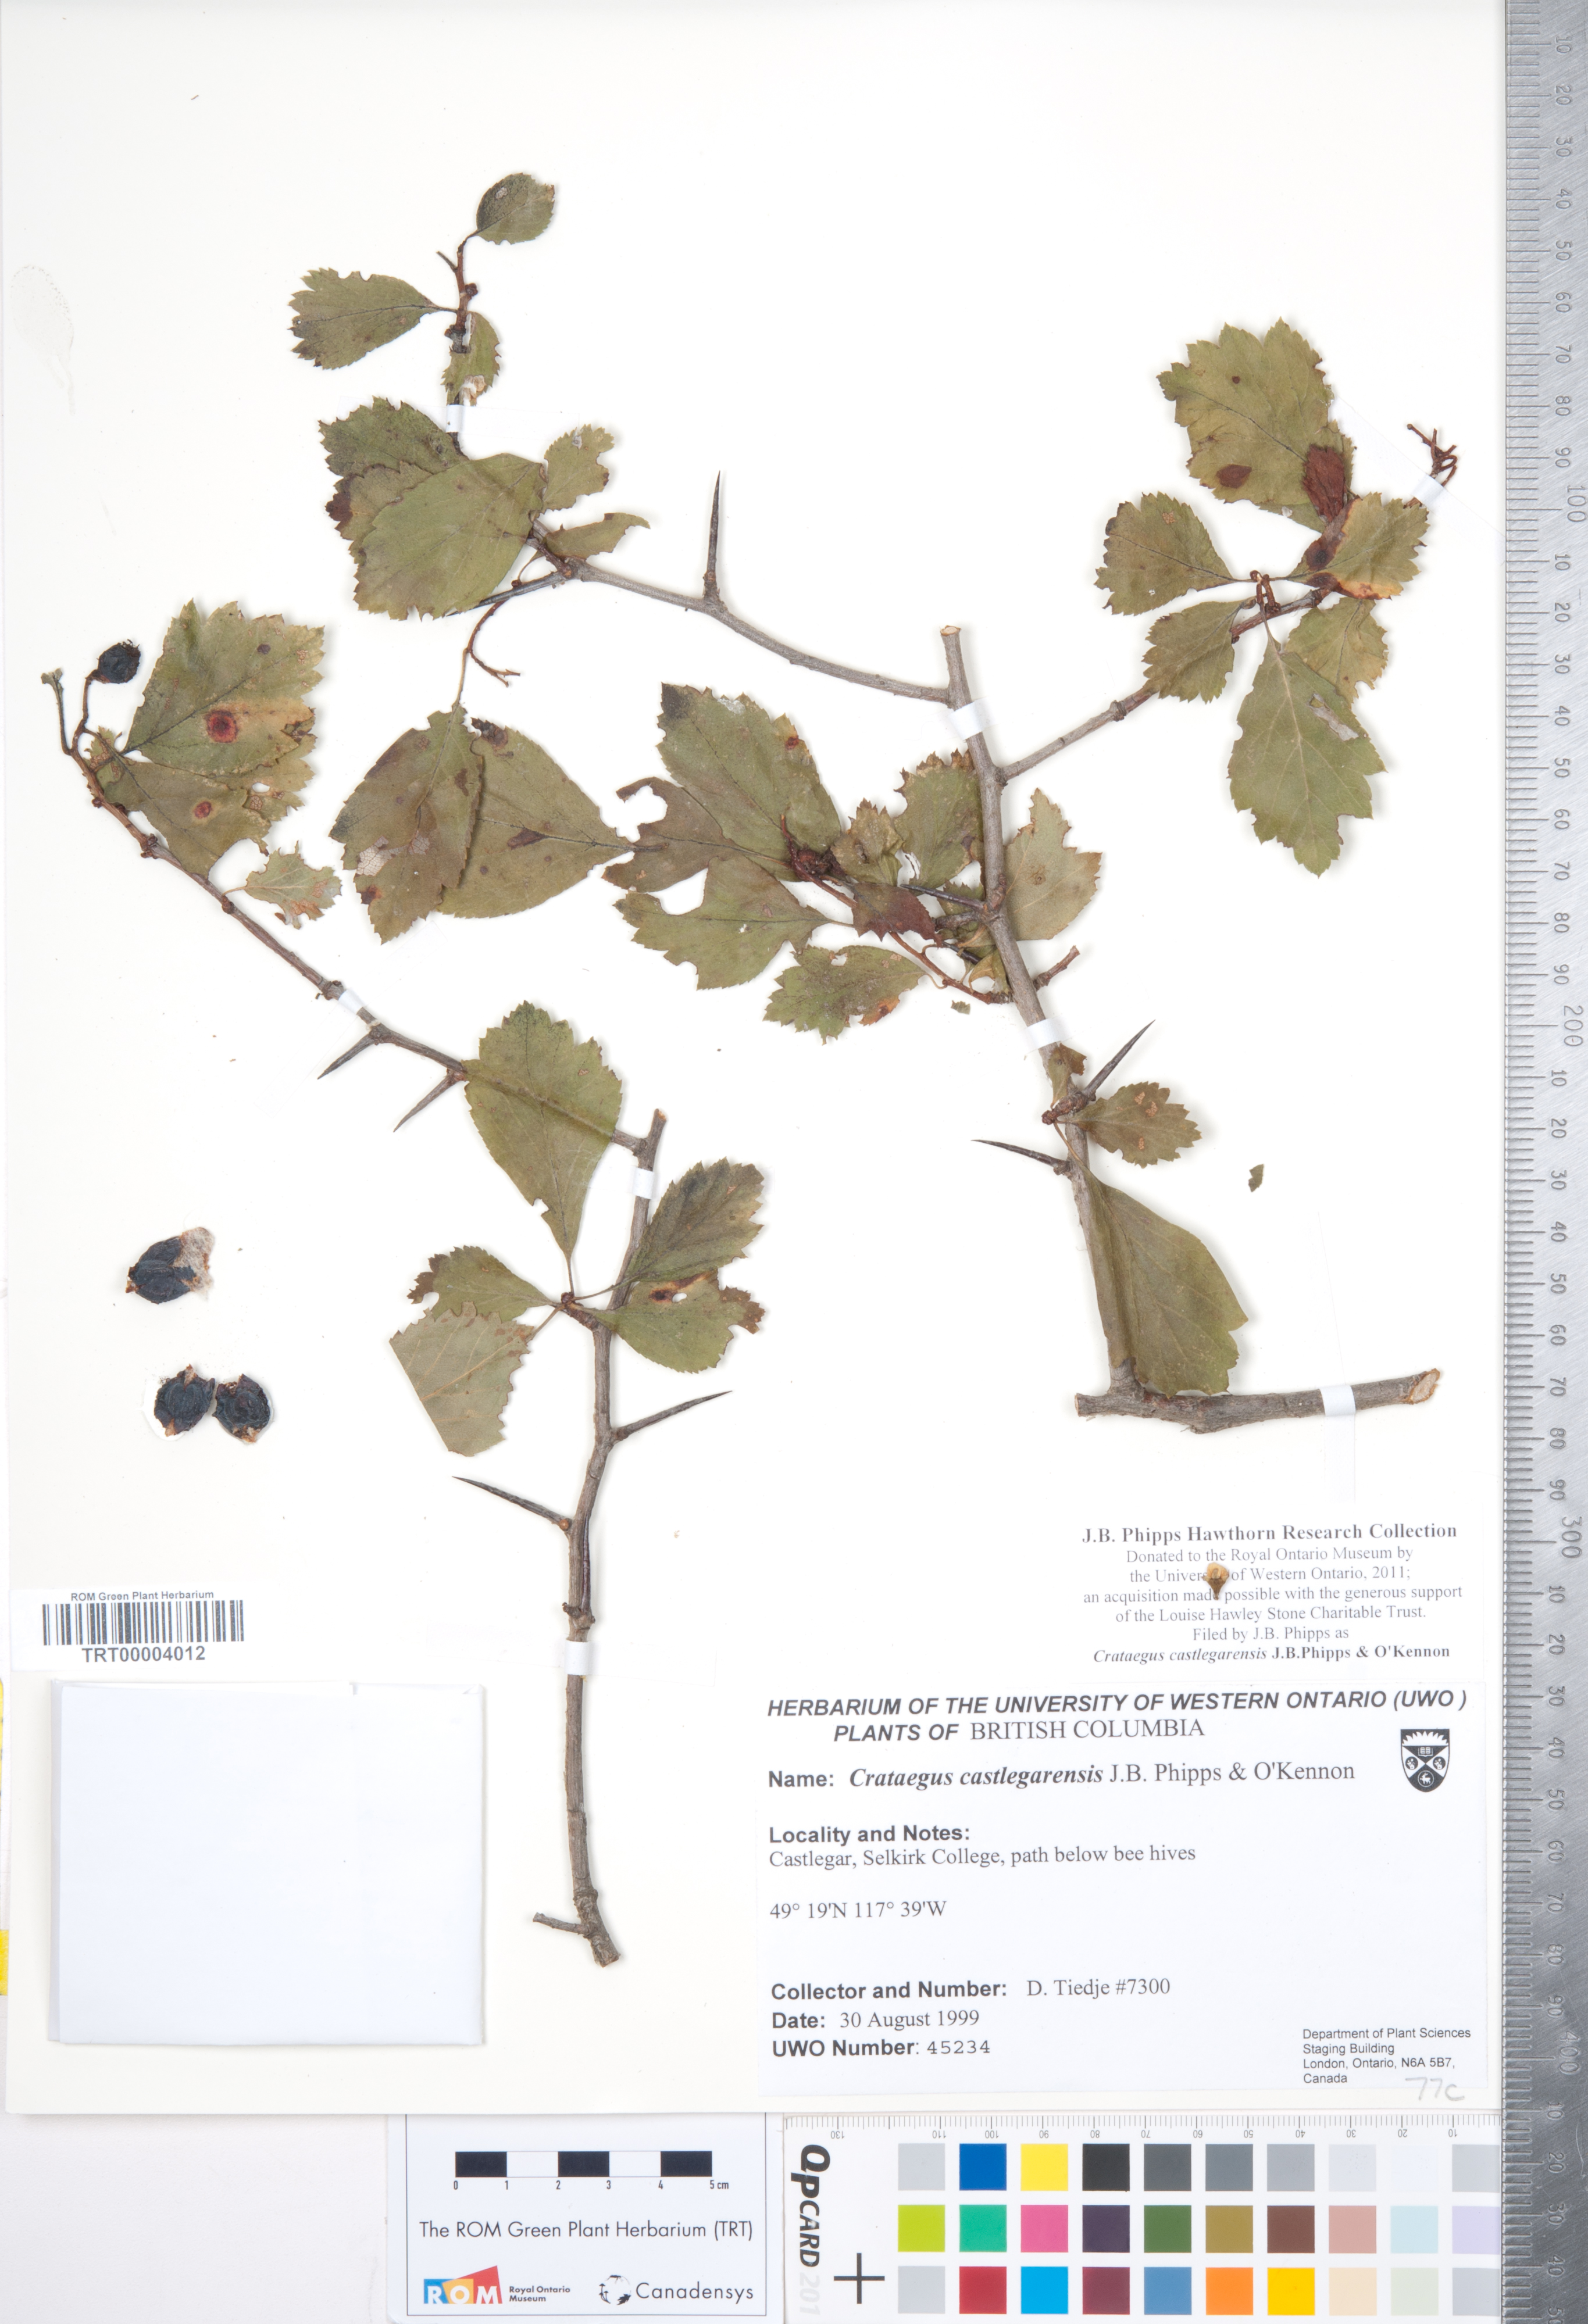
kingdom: Plantae
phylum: Tracheophyta
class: Magnoliopsida
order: Rosales
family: Rosaceae
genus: Crataegus
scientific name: Crataegus castlegarensis
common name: Castlegar hawthorn
